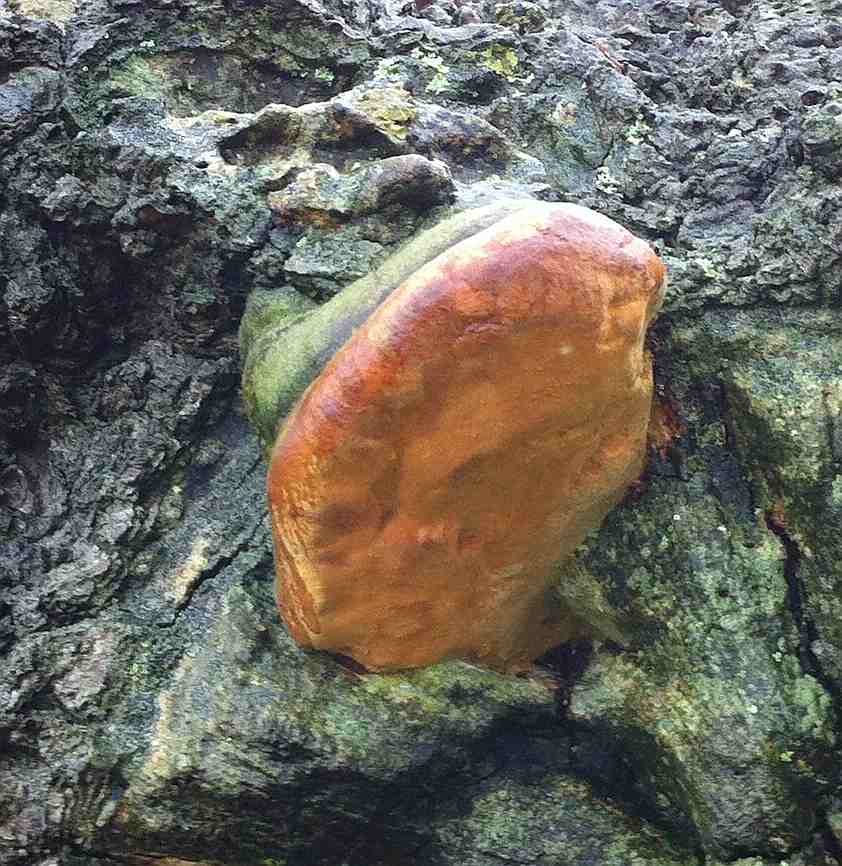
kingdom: Fungi
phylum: Basidiomycota
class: Agaricomycetes
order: Hymenochaetales
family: Hymenochaetaceae
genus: Fomitiporia
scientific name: Fomitiporia robusta
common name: ege-ildporesvamp
